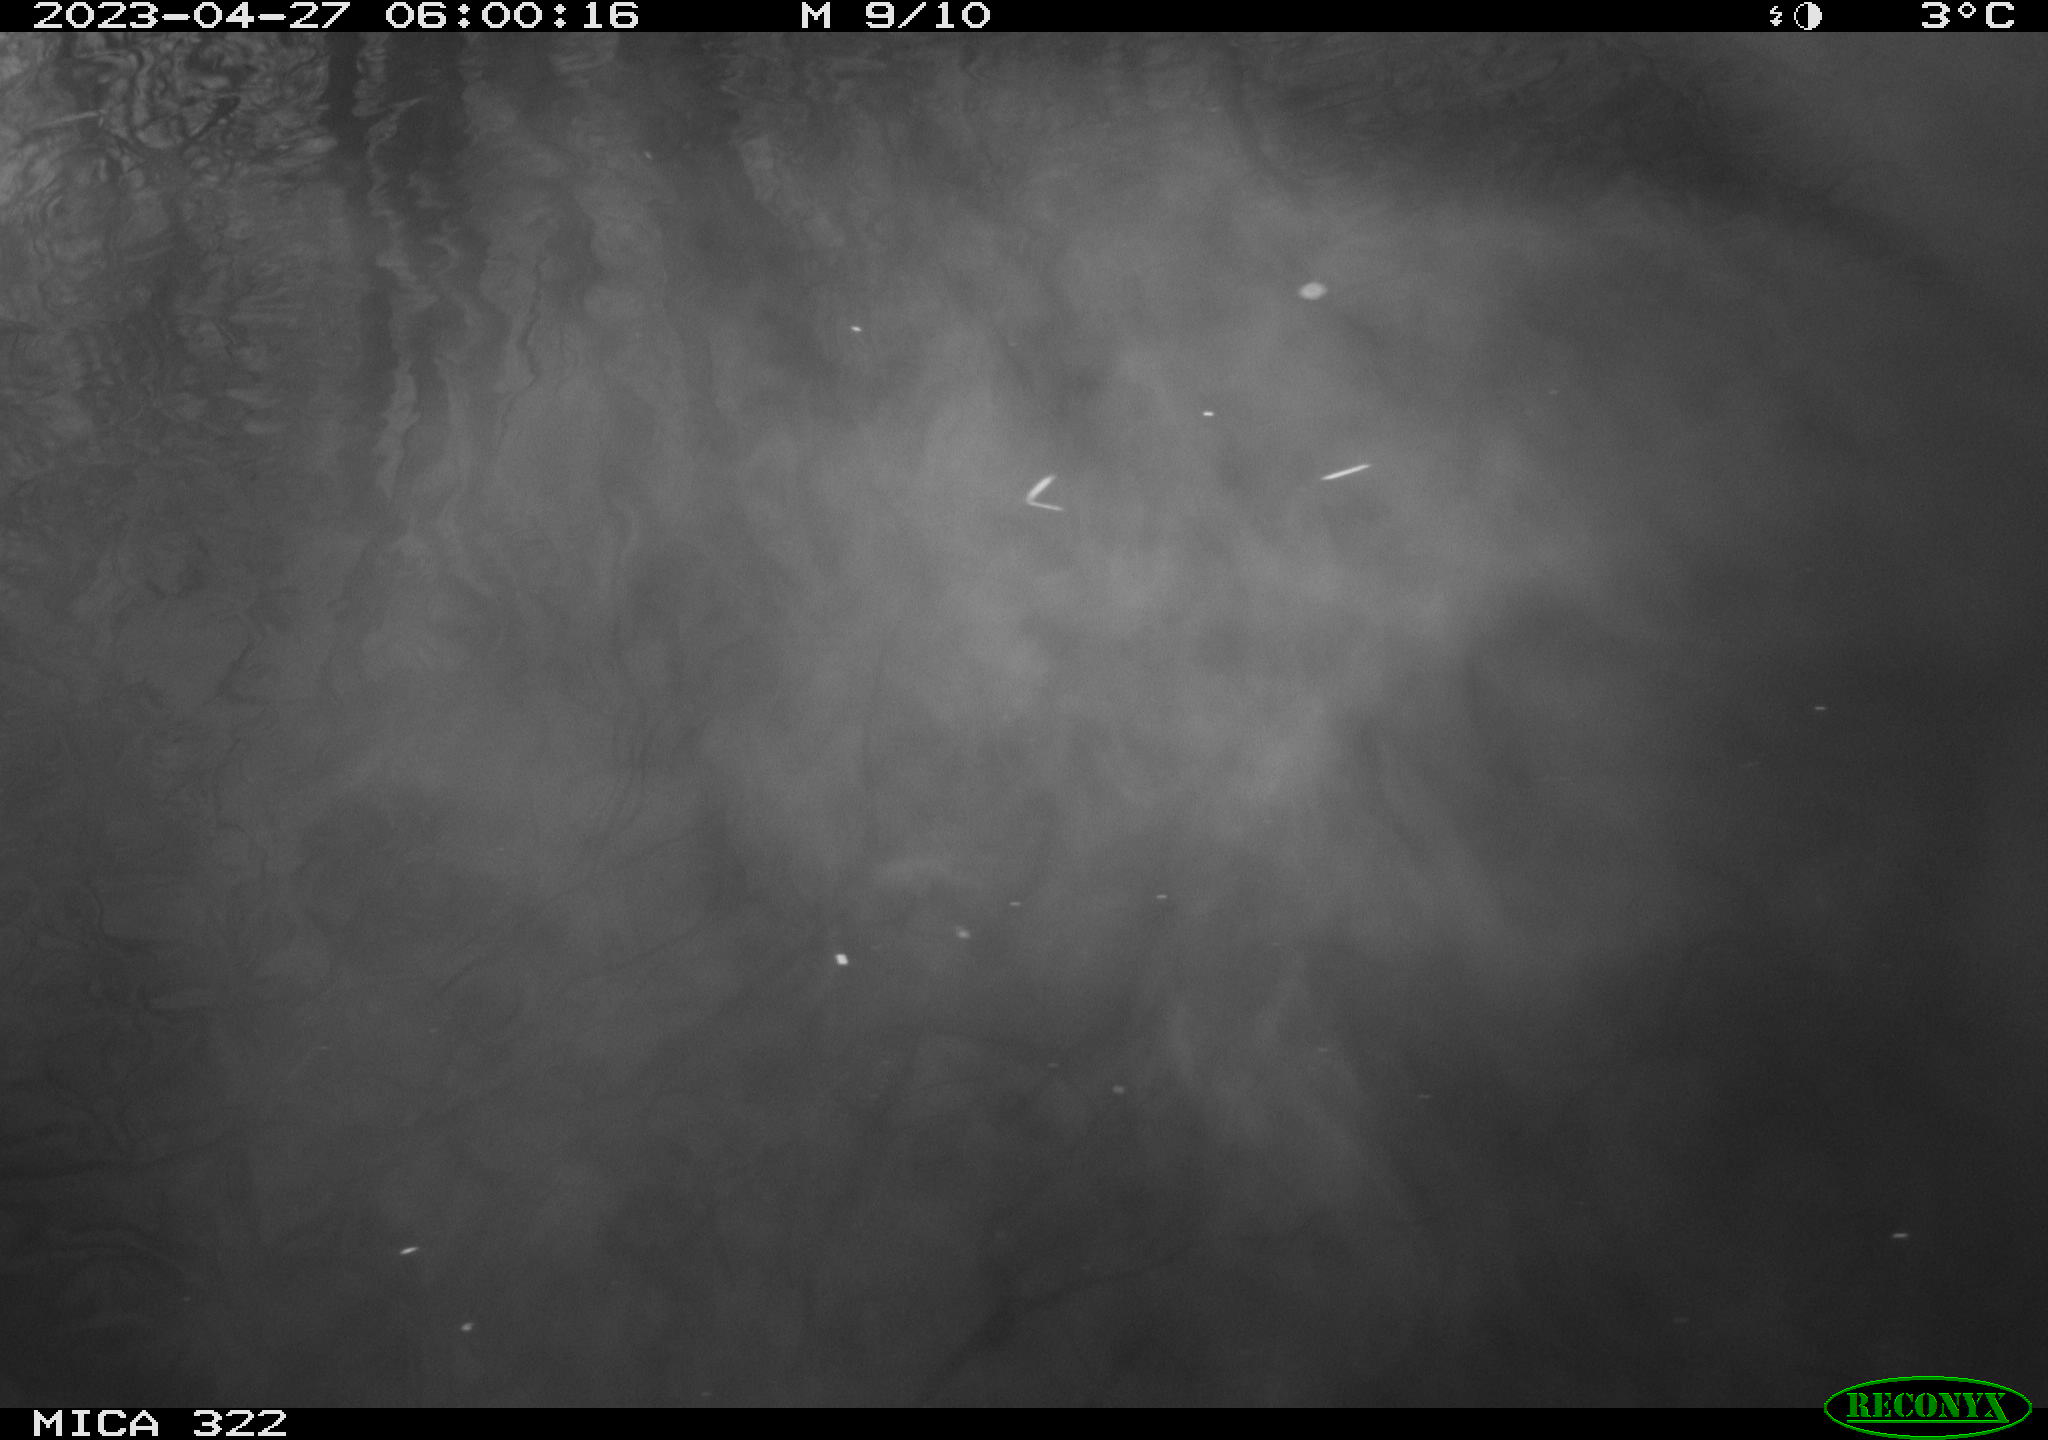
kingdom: Animalia
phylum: Chordata
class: Aves
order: Anseriformes
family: Anatidae
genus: Anser
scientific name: Anser anser
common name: Greylag goose
